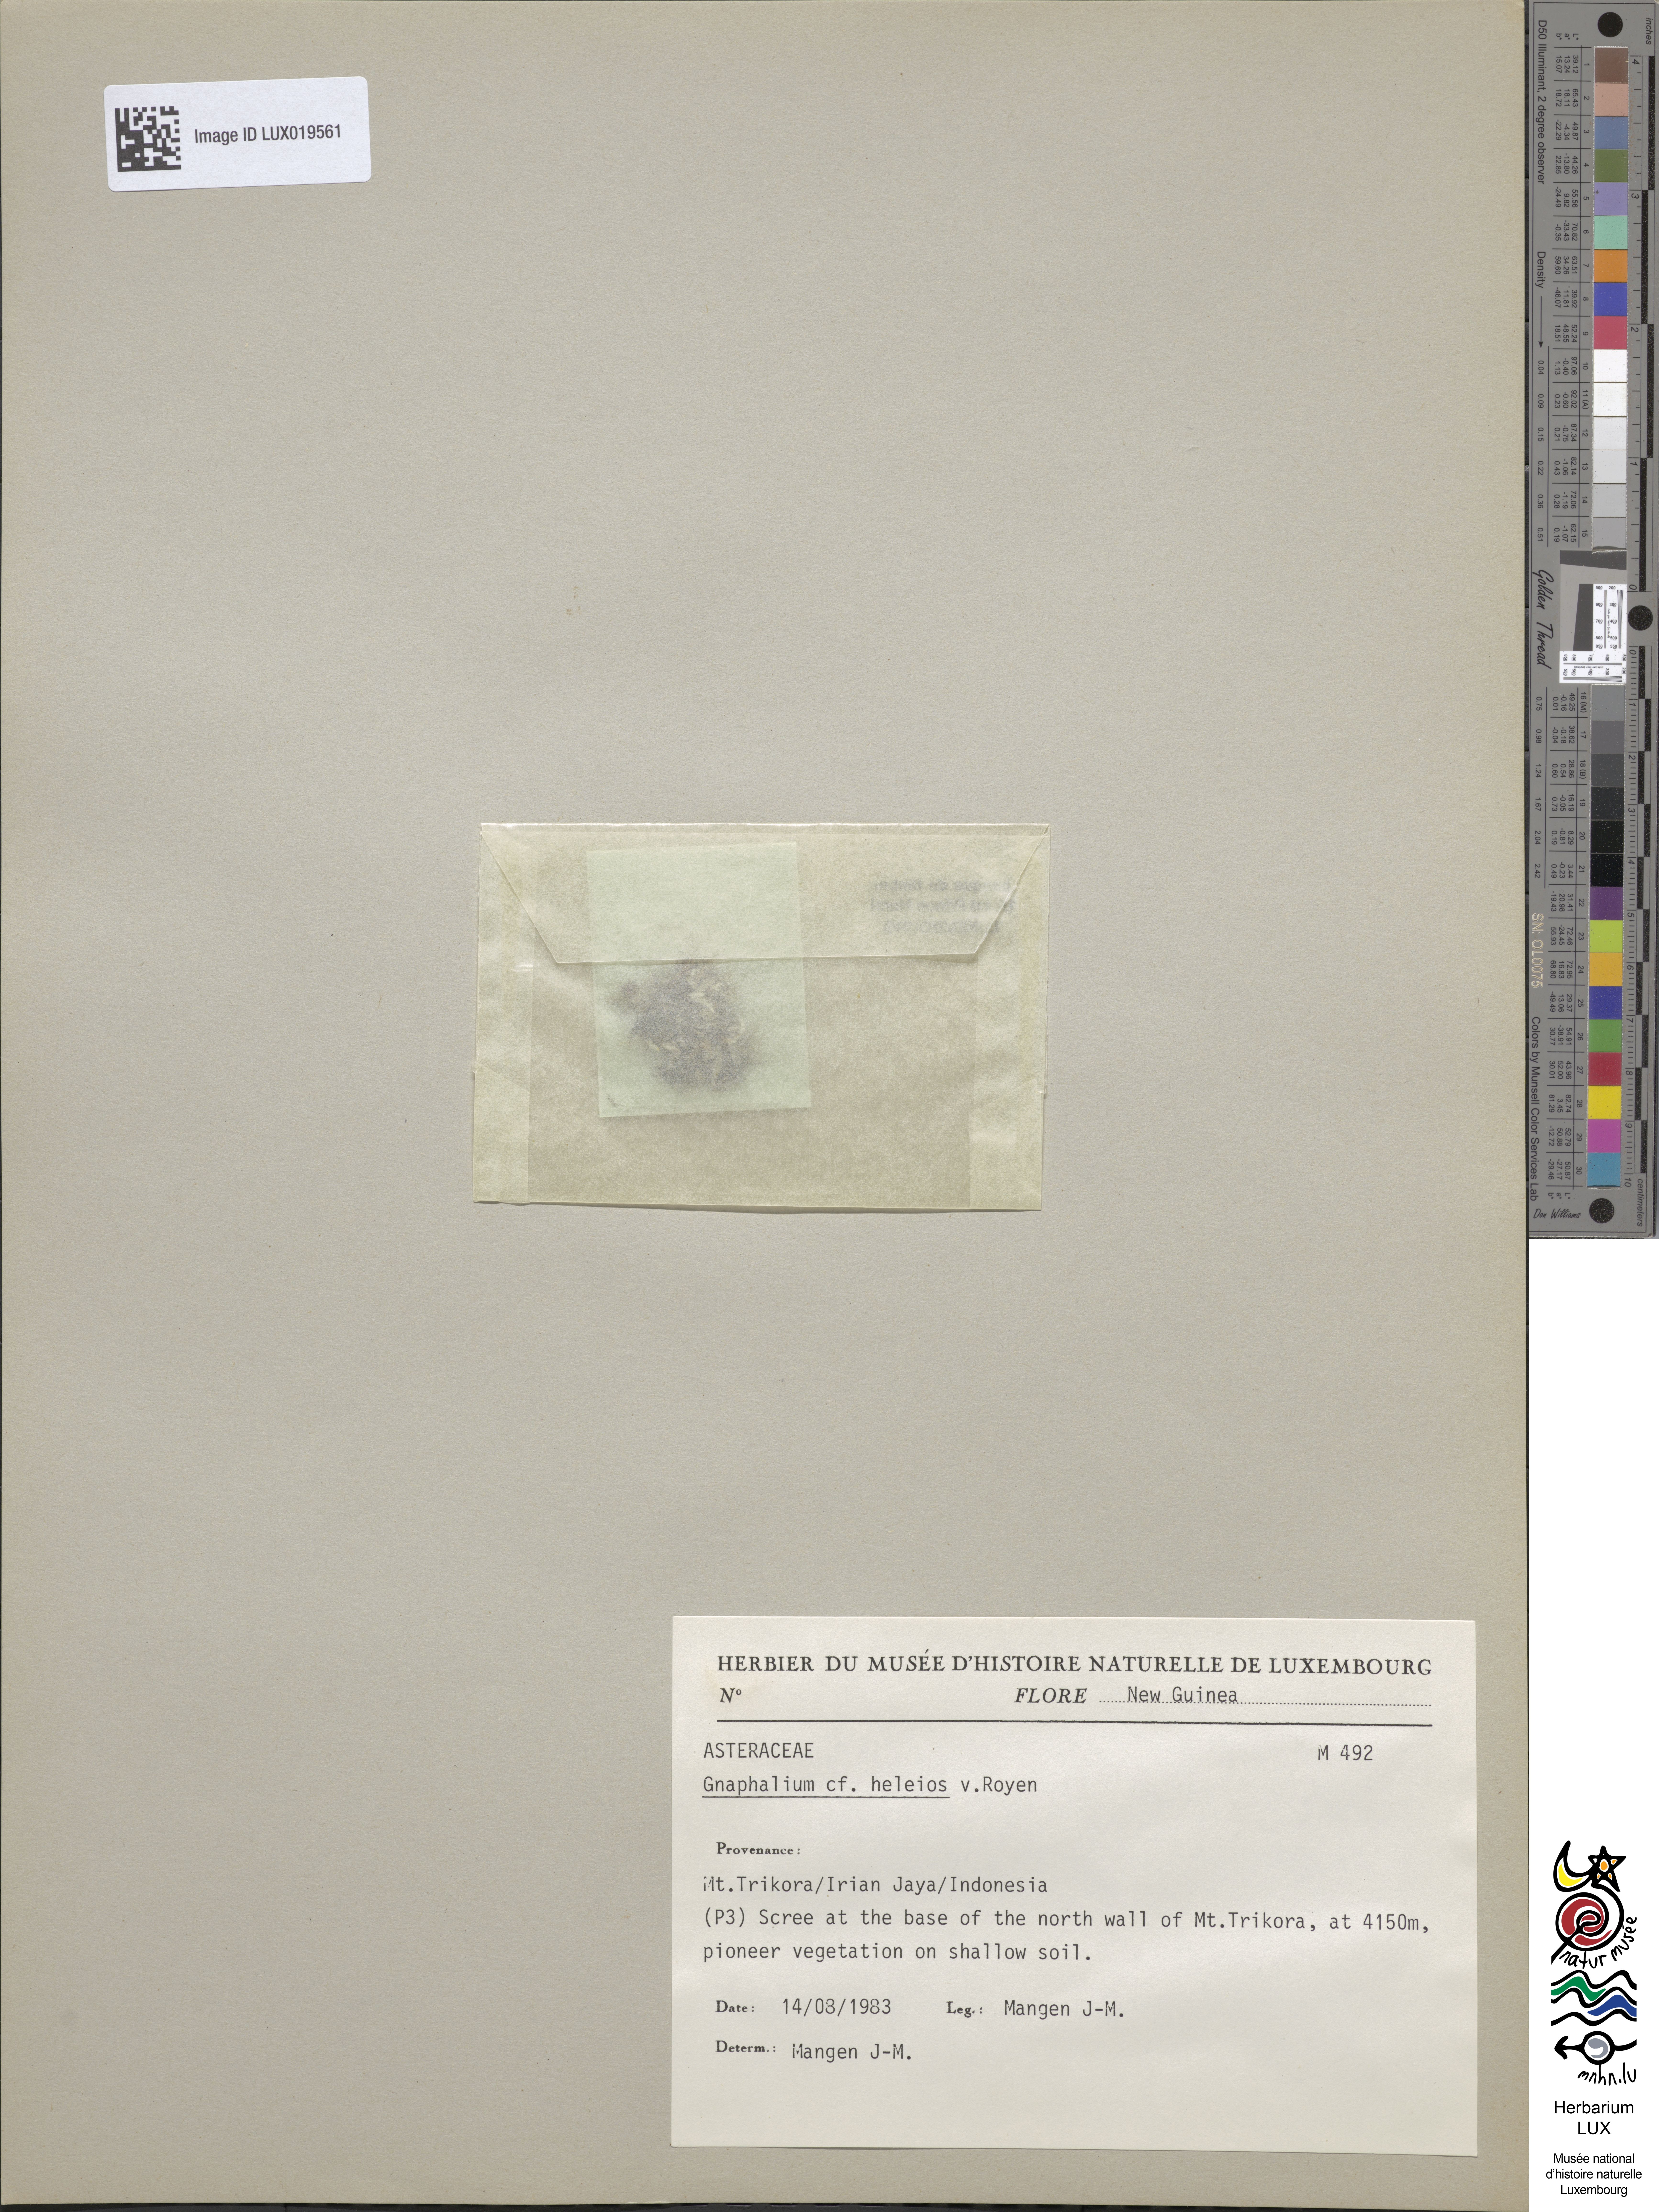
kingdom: Plantae
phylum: Tracheophyta
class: Magnoliopsida
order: Asterales
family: Asteraceae
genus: Gnaphalium
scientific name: Gnaphalium heleios
